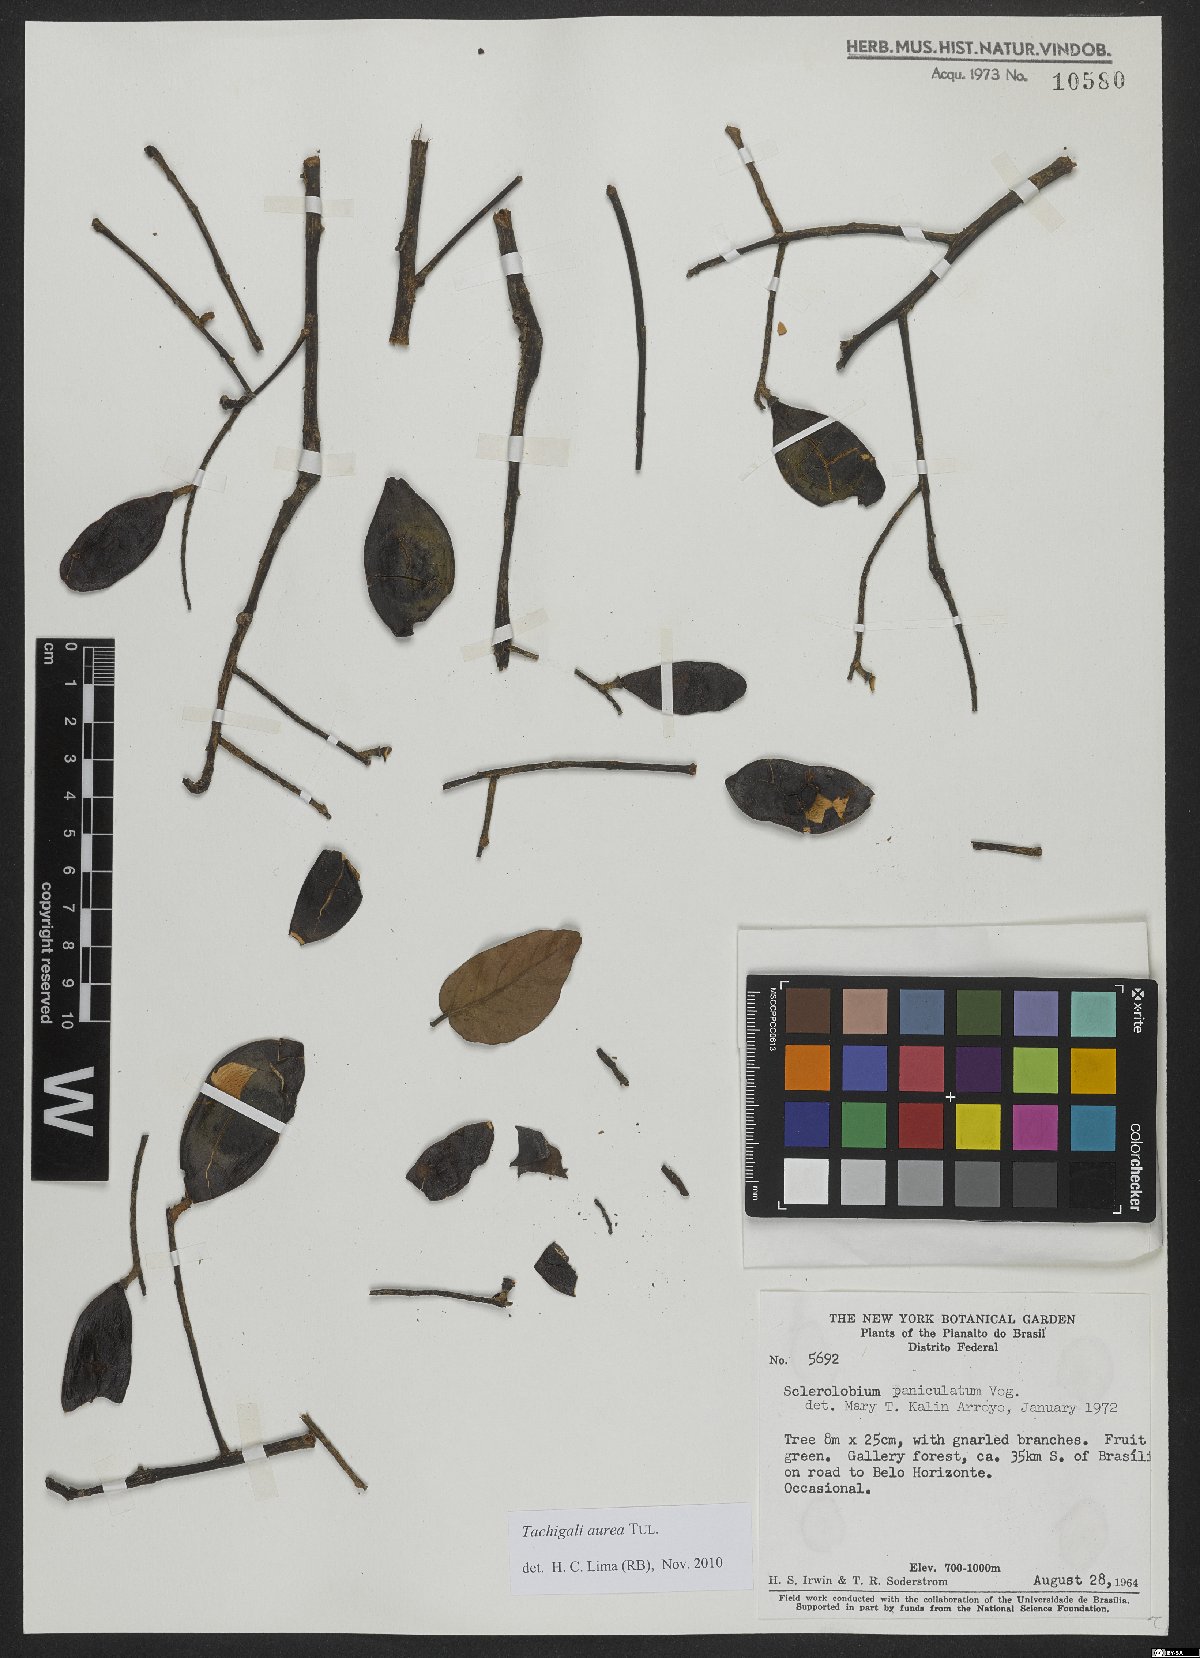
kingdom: Plantae
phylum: Tracheophyta
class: Magnoliopsida
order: Fabales
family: Fabaceae
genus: Tachigali
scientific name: Tachigali aurea
